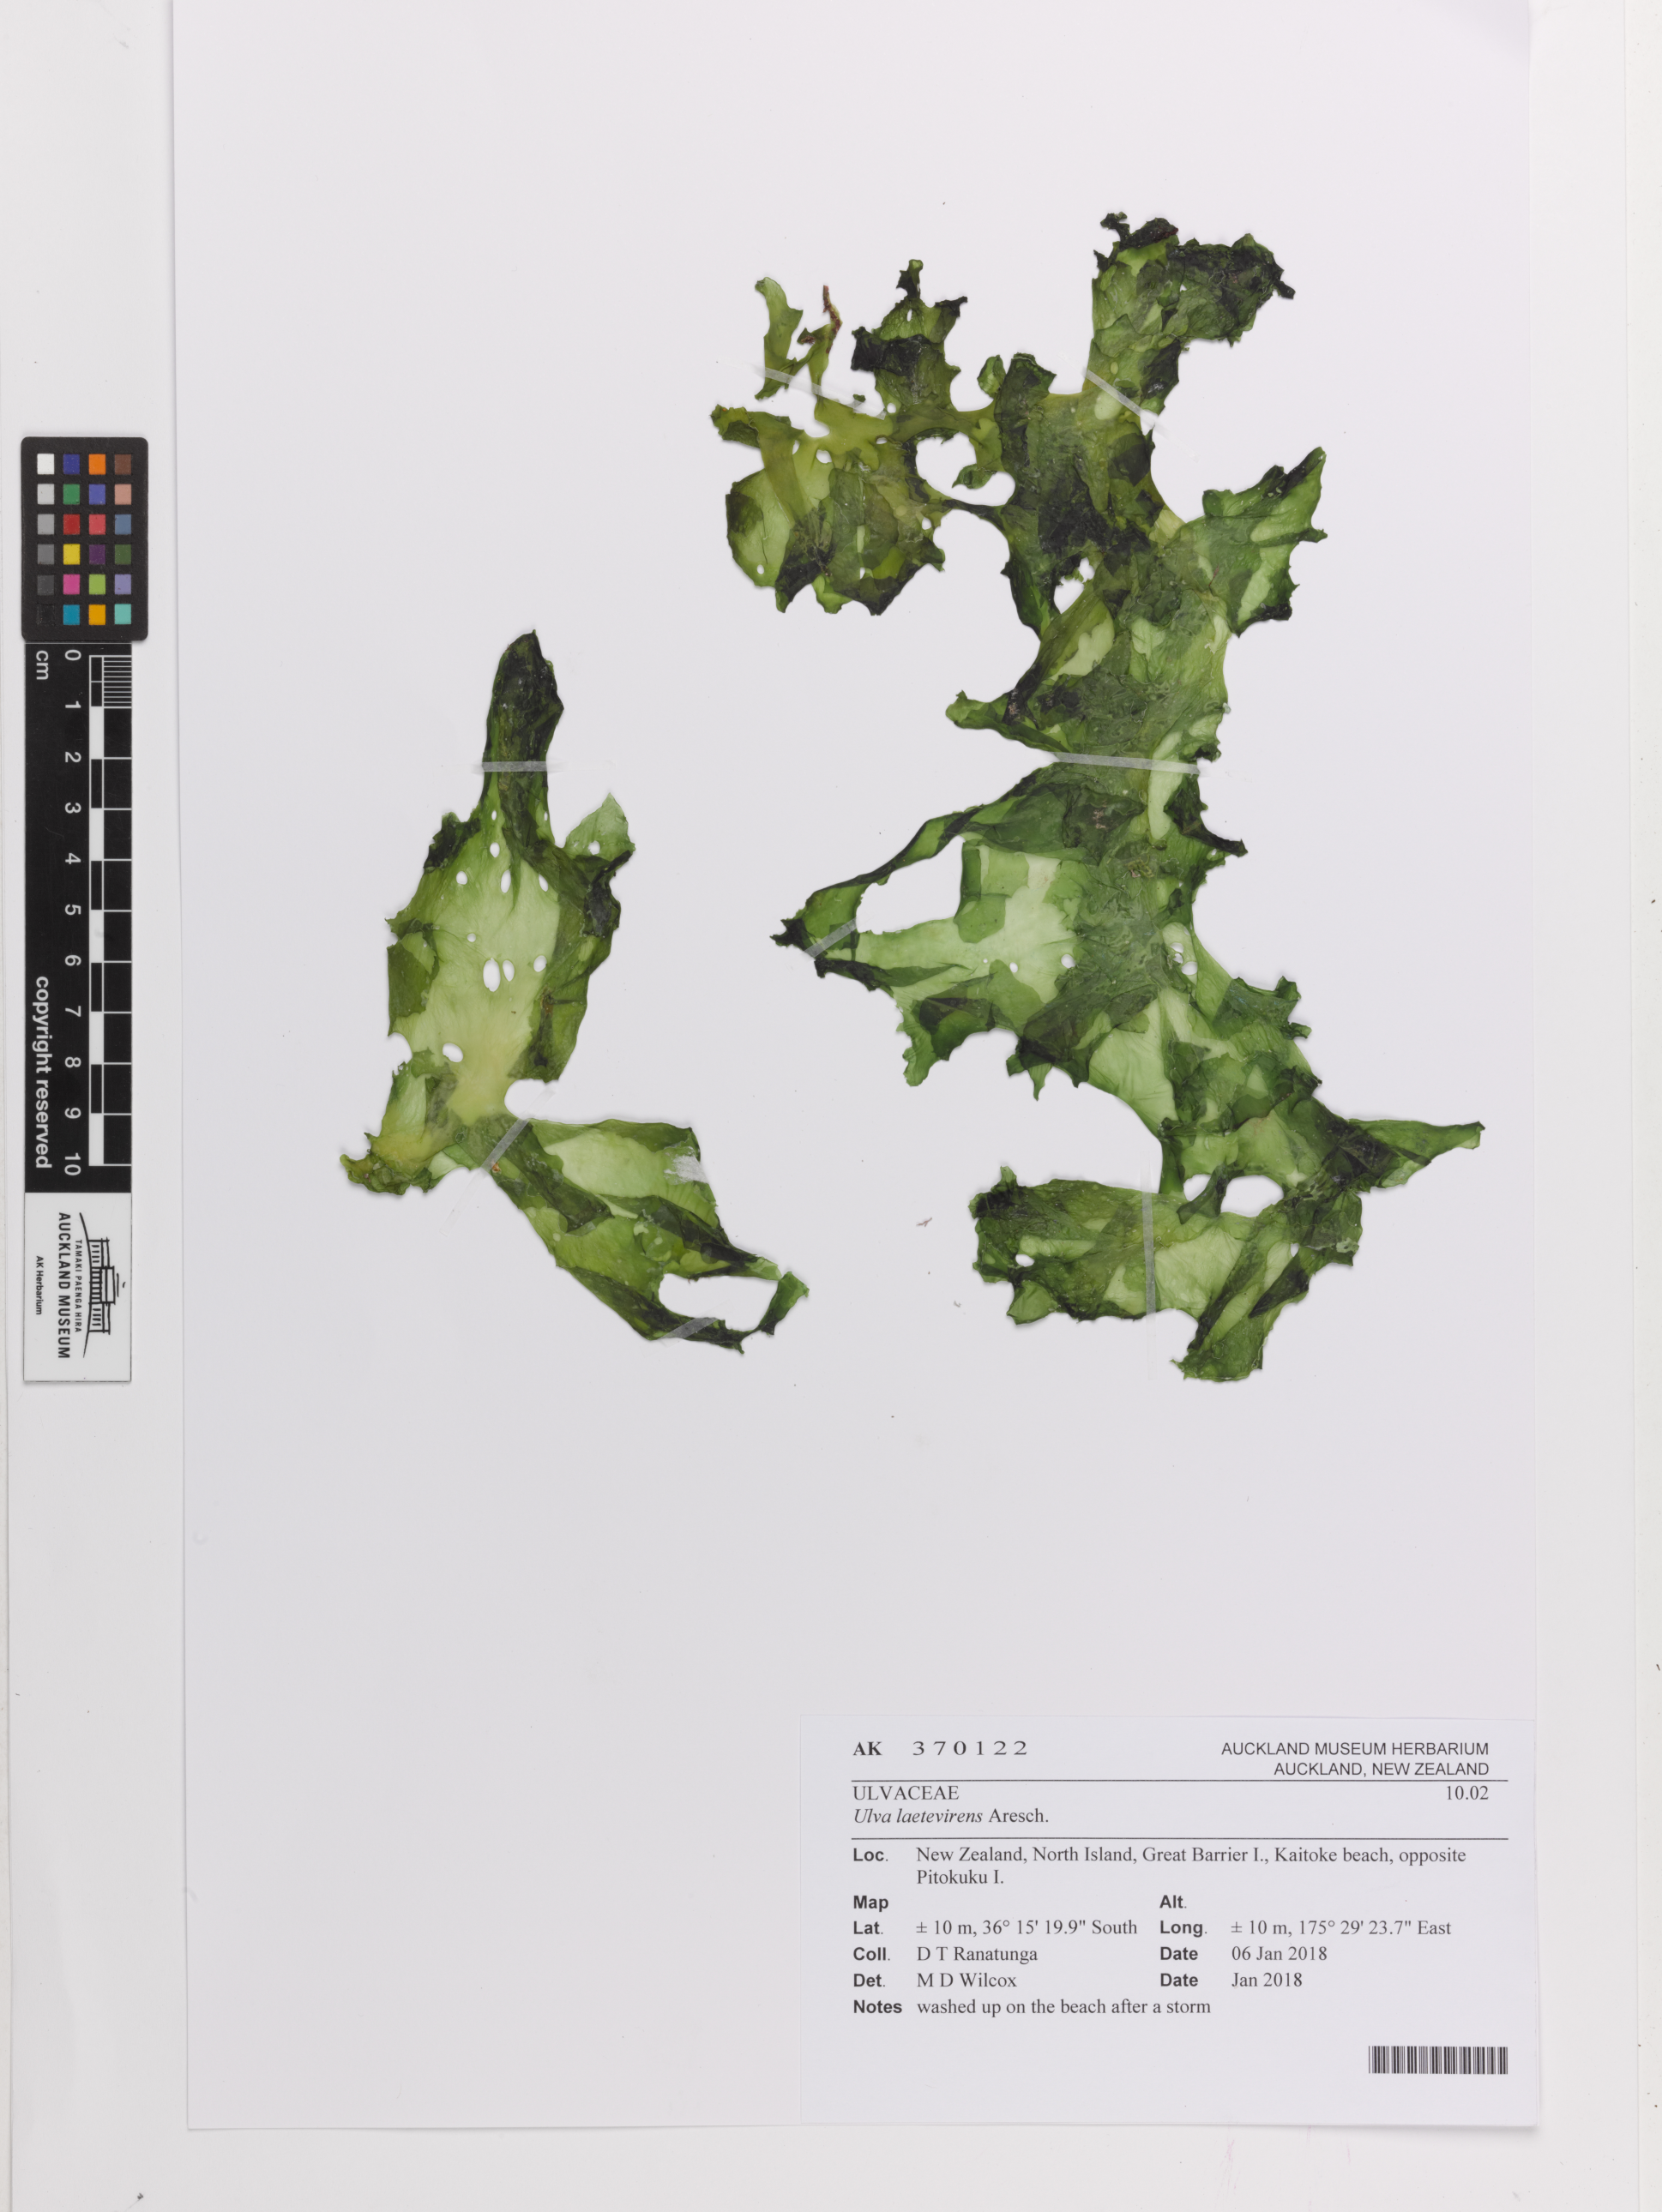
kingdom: Plantae
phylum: Chlorophyta
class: Ulvophyceae
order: Ulvales
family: Ulvaceae
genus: Ulva
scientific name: Ulva spec
